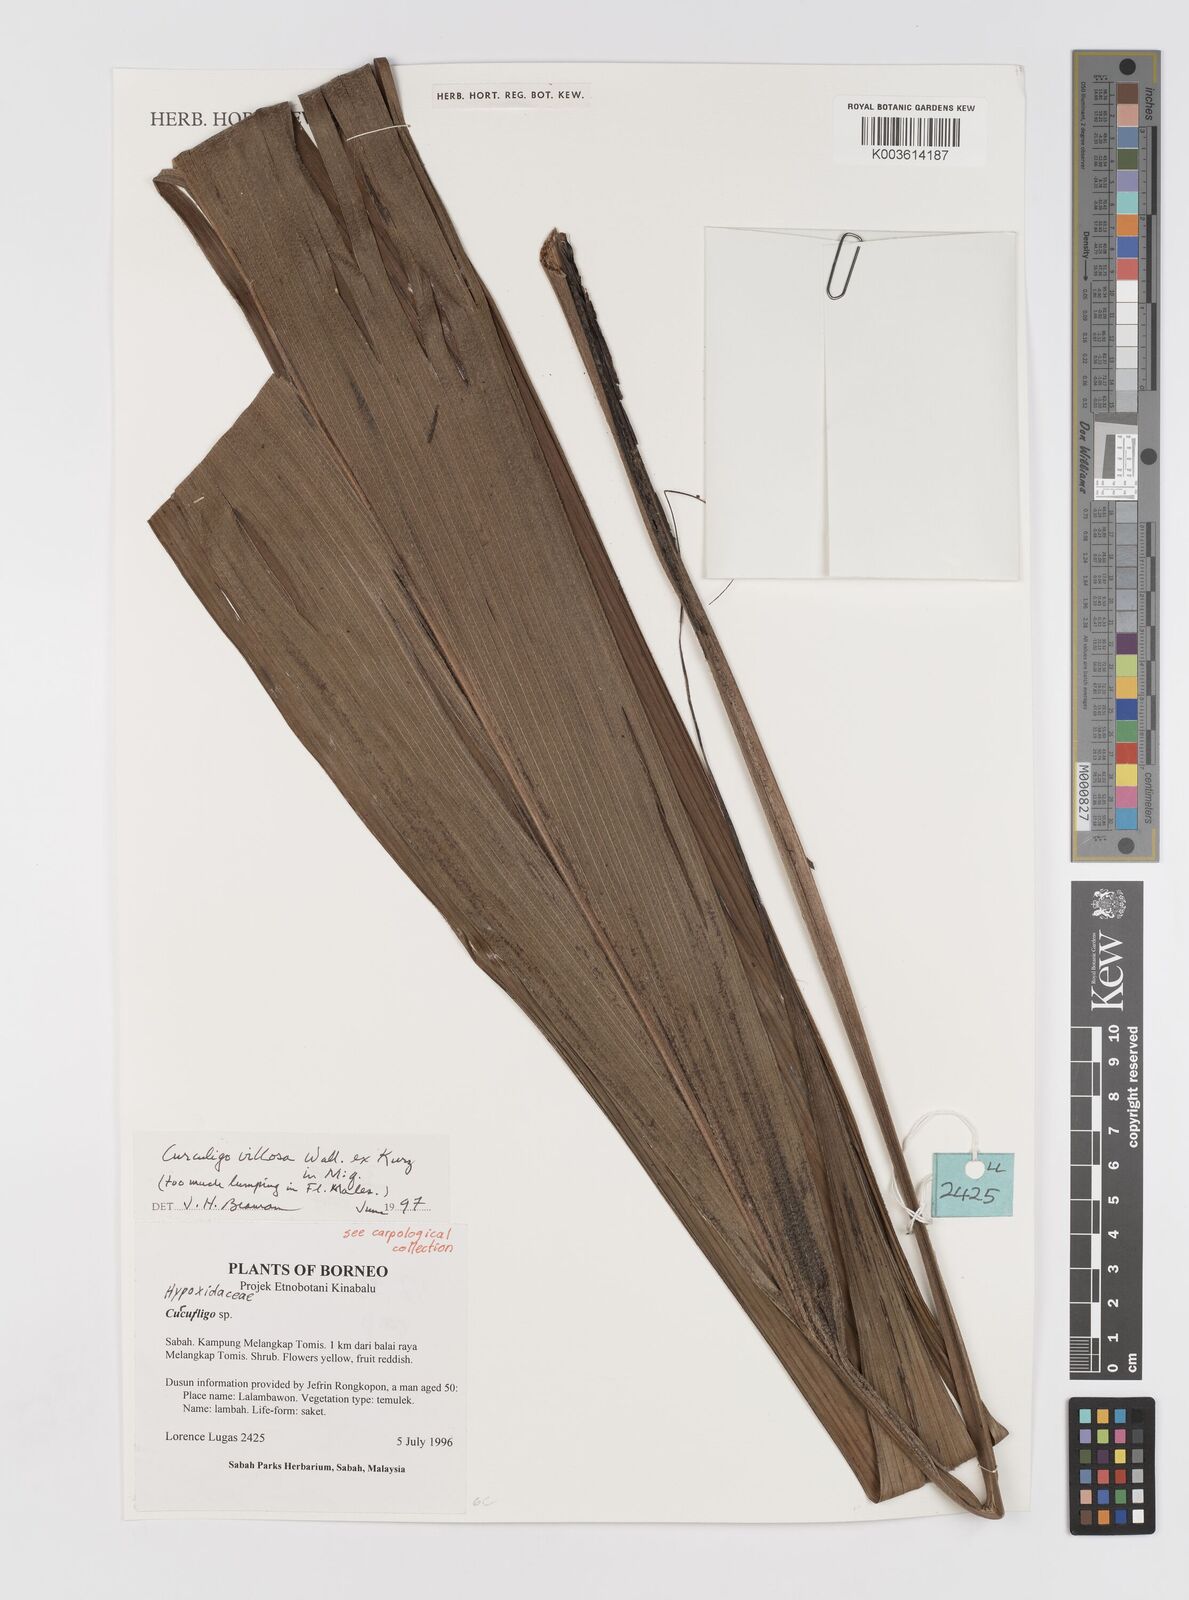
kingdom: Plantae
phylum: Tracheophyta
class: Liliopsida
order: Asparagales
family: Hypoxidaceae
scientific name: Hypoxidaceae
